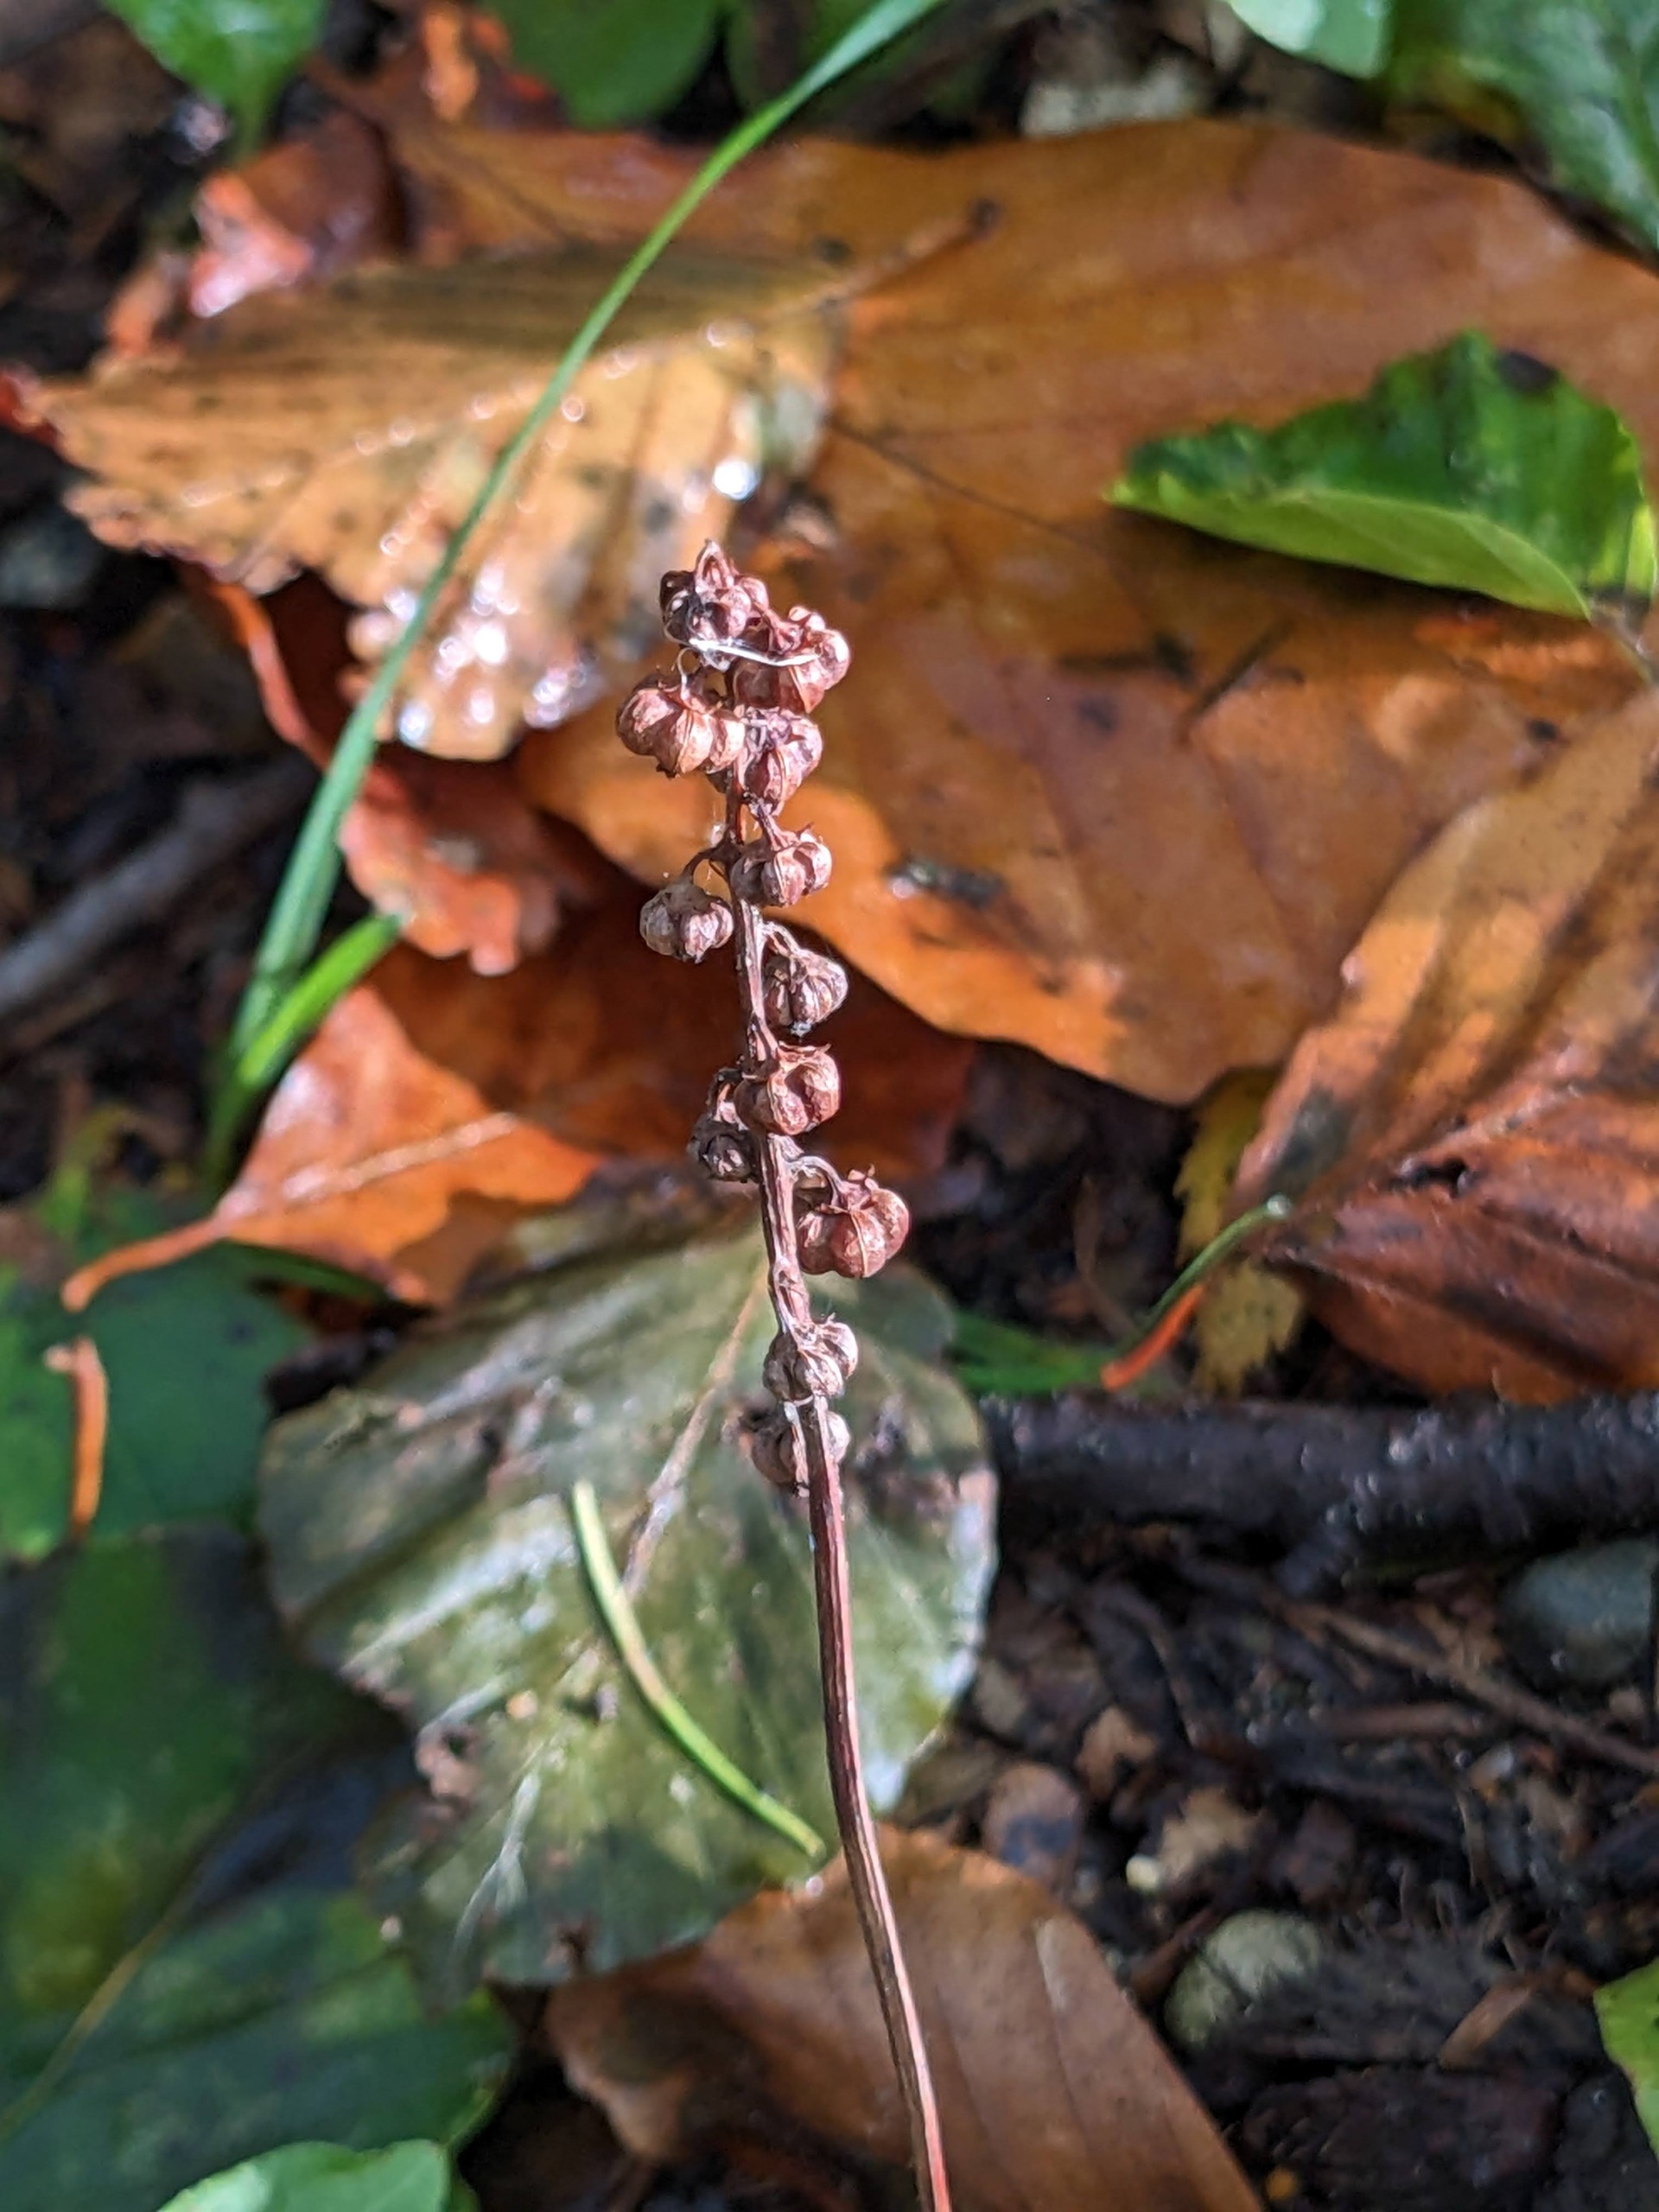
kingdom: Plantae
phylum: Tracheophyta
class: Magnoliopsida
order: Ericales
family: Ericaceae
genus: Pyrola
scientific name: Pyrola minor
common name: Liden vintergrøn
